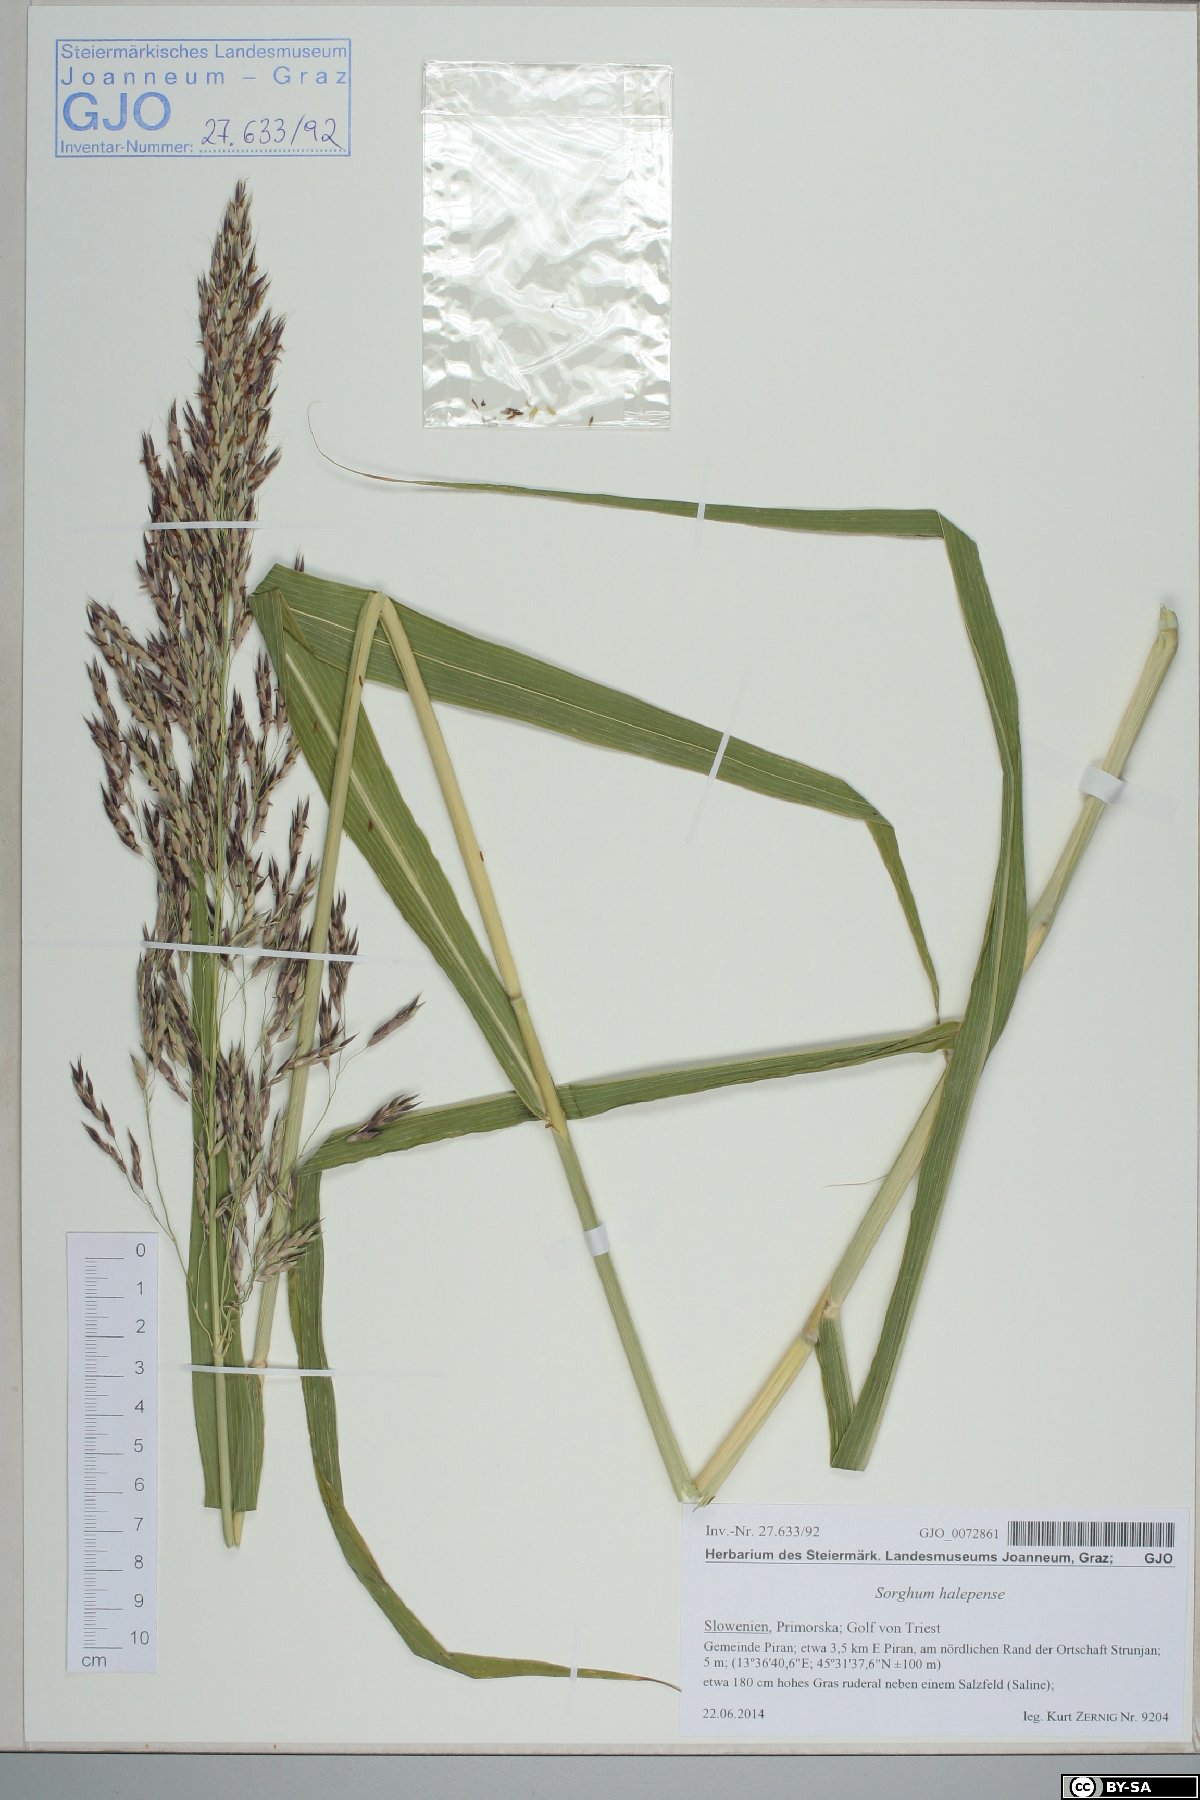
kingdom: Plantae
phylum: Tracheophyta
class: Liliopsida
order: Poales
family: Poaceae
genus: Sorghum
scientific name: Sorghum halepense
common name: Johnson-grass
